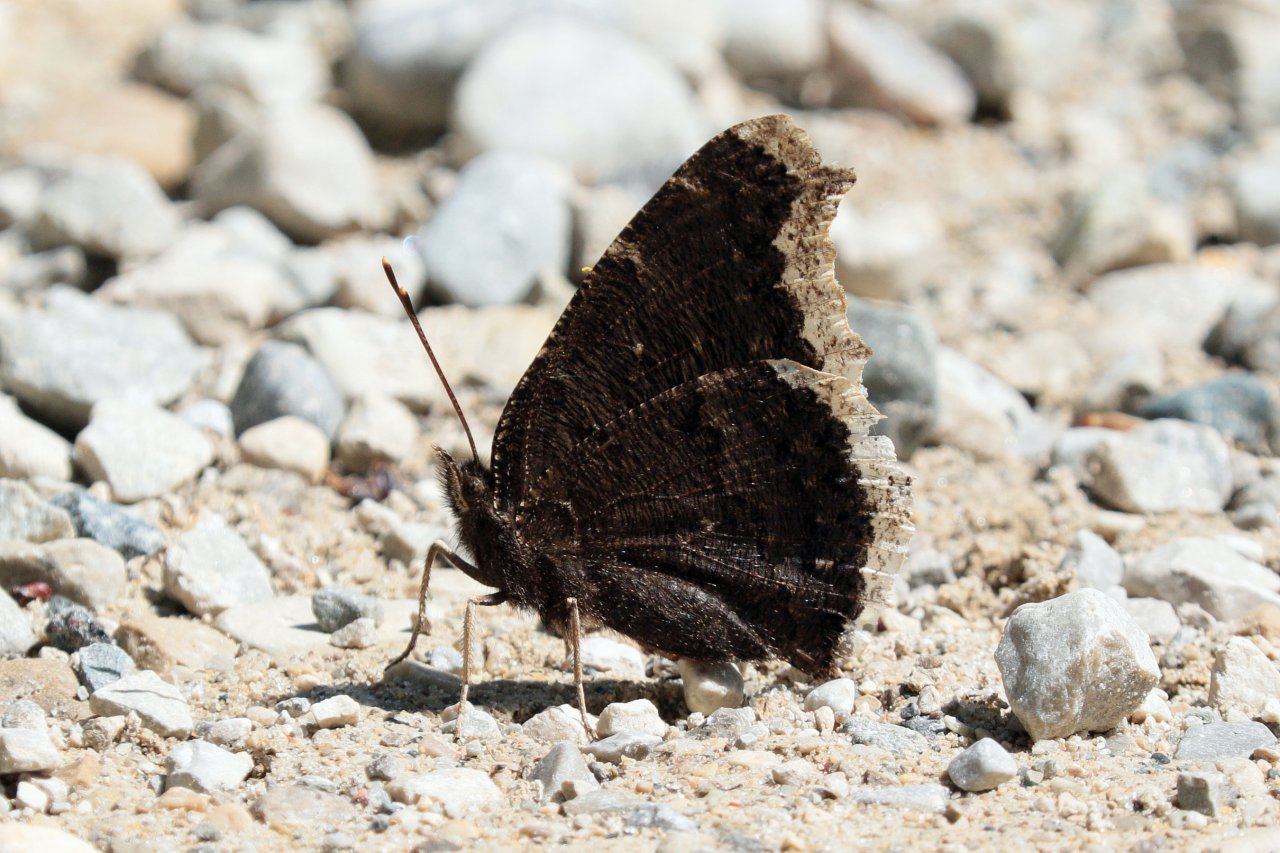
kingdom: Animalia
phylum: Arthropoda
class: Insecta
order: Lepidoptera
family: Nymphalidae
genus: Nymphalis
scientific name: Nymphalis antiopa
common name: Mourning Cloak
